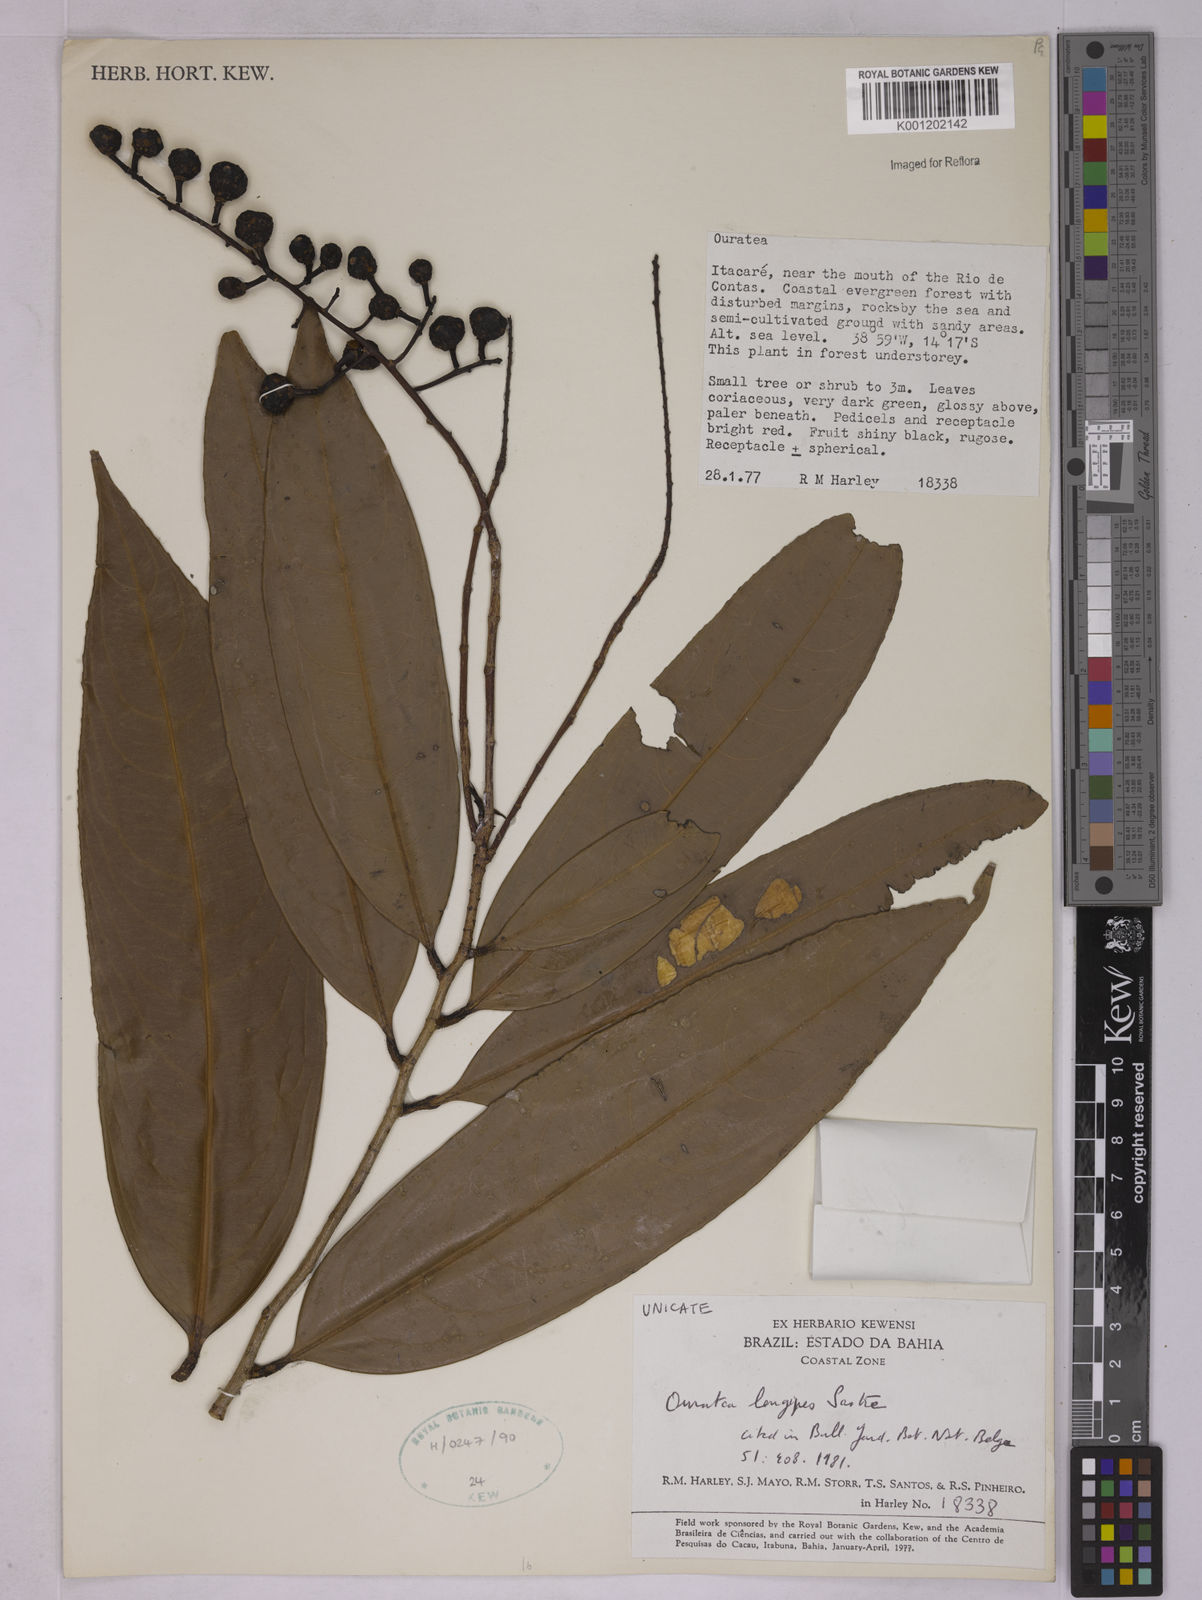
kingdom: Plantae
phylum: Tracheophyta
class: Magnoliopsida
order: Malpighiales
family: Ochnaceae
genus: Ouratea
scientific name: Ouratea longipes
